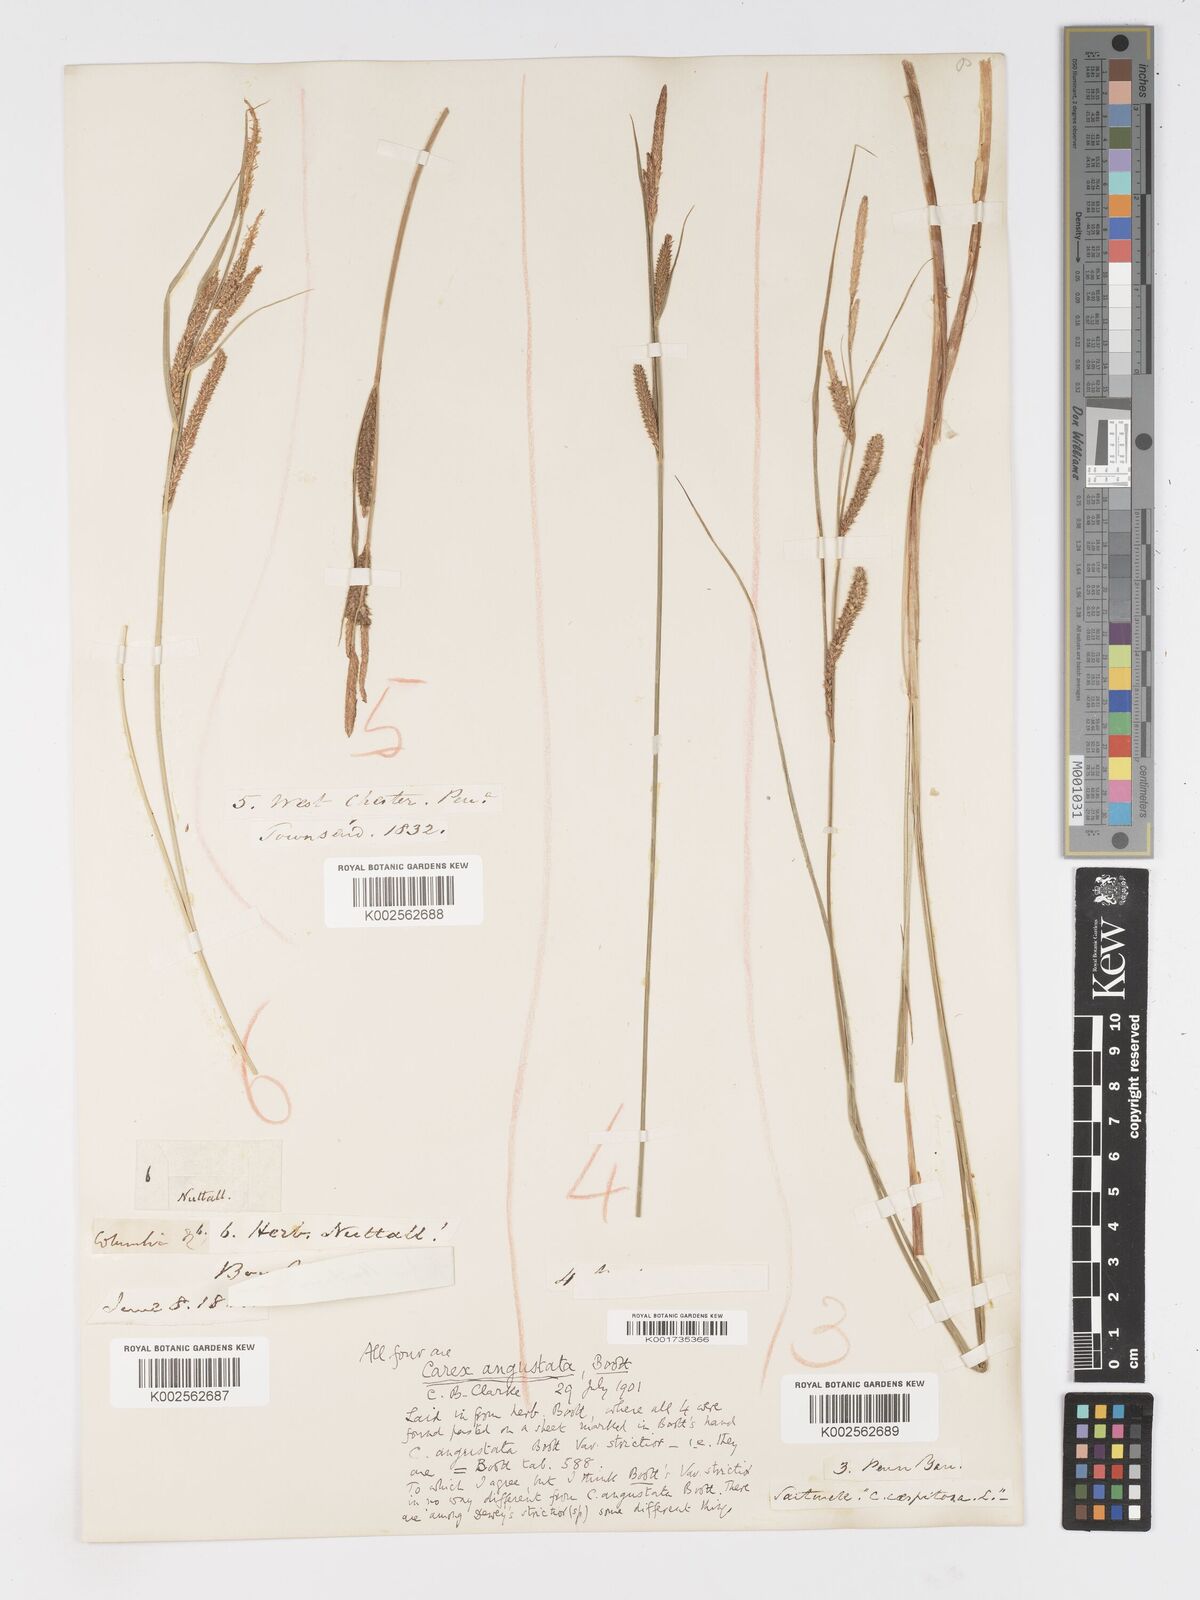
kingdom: Plantae
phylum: Tracheophyta
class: Liliopsida
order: Poales
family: Cyperaceae
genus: Carex
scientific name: Carex stricta
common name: Hummock sedge
